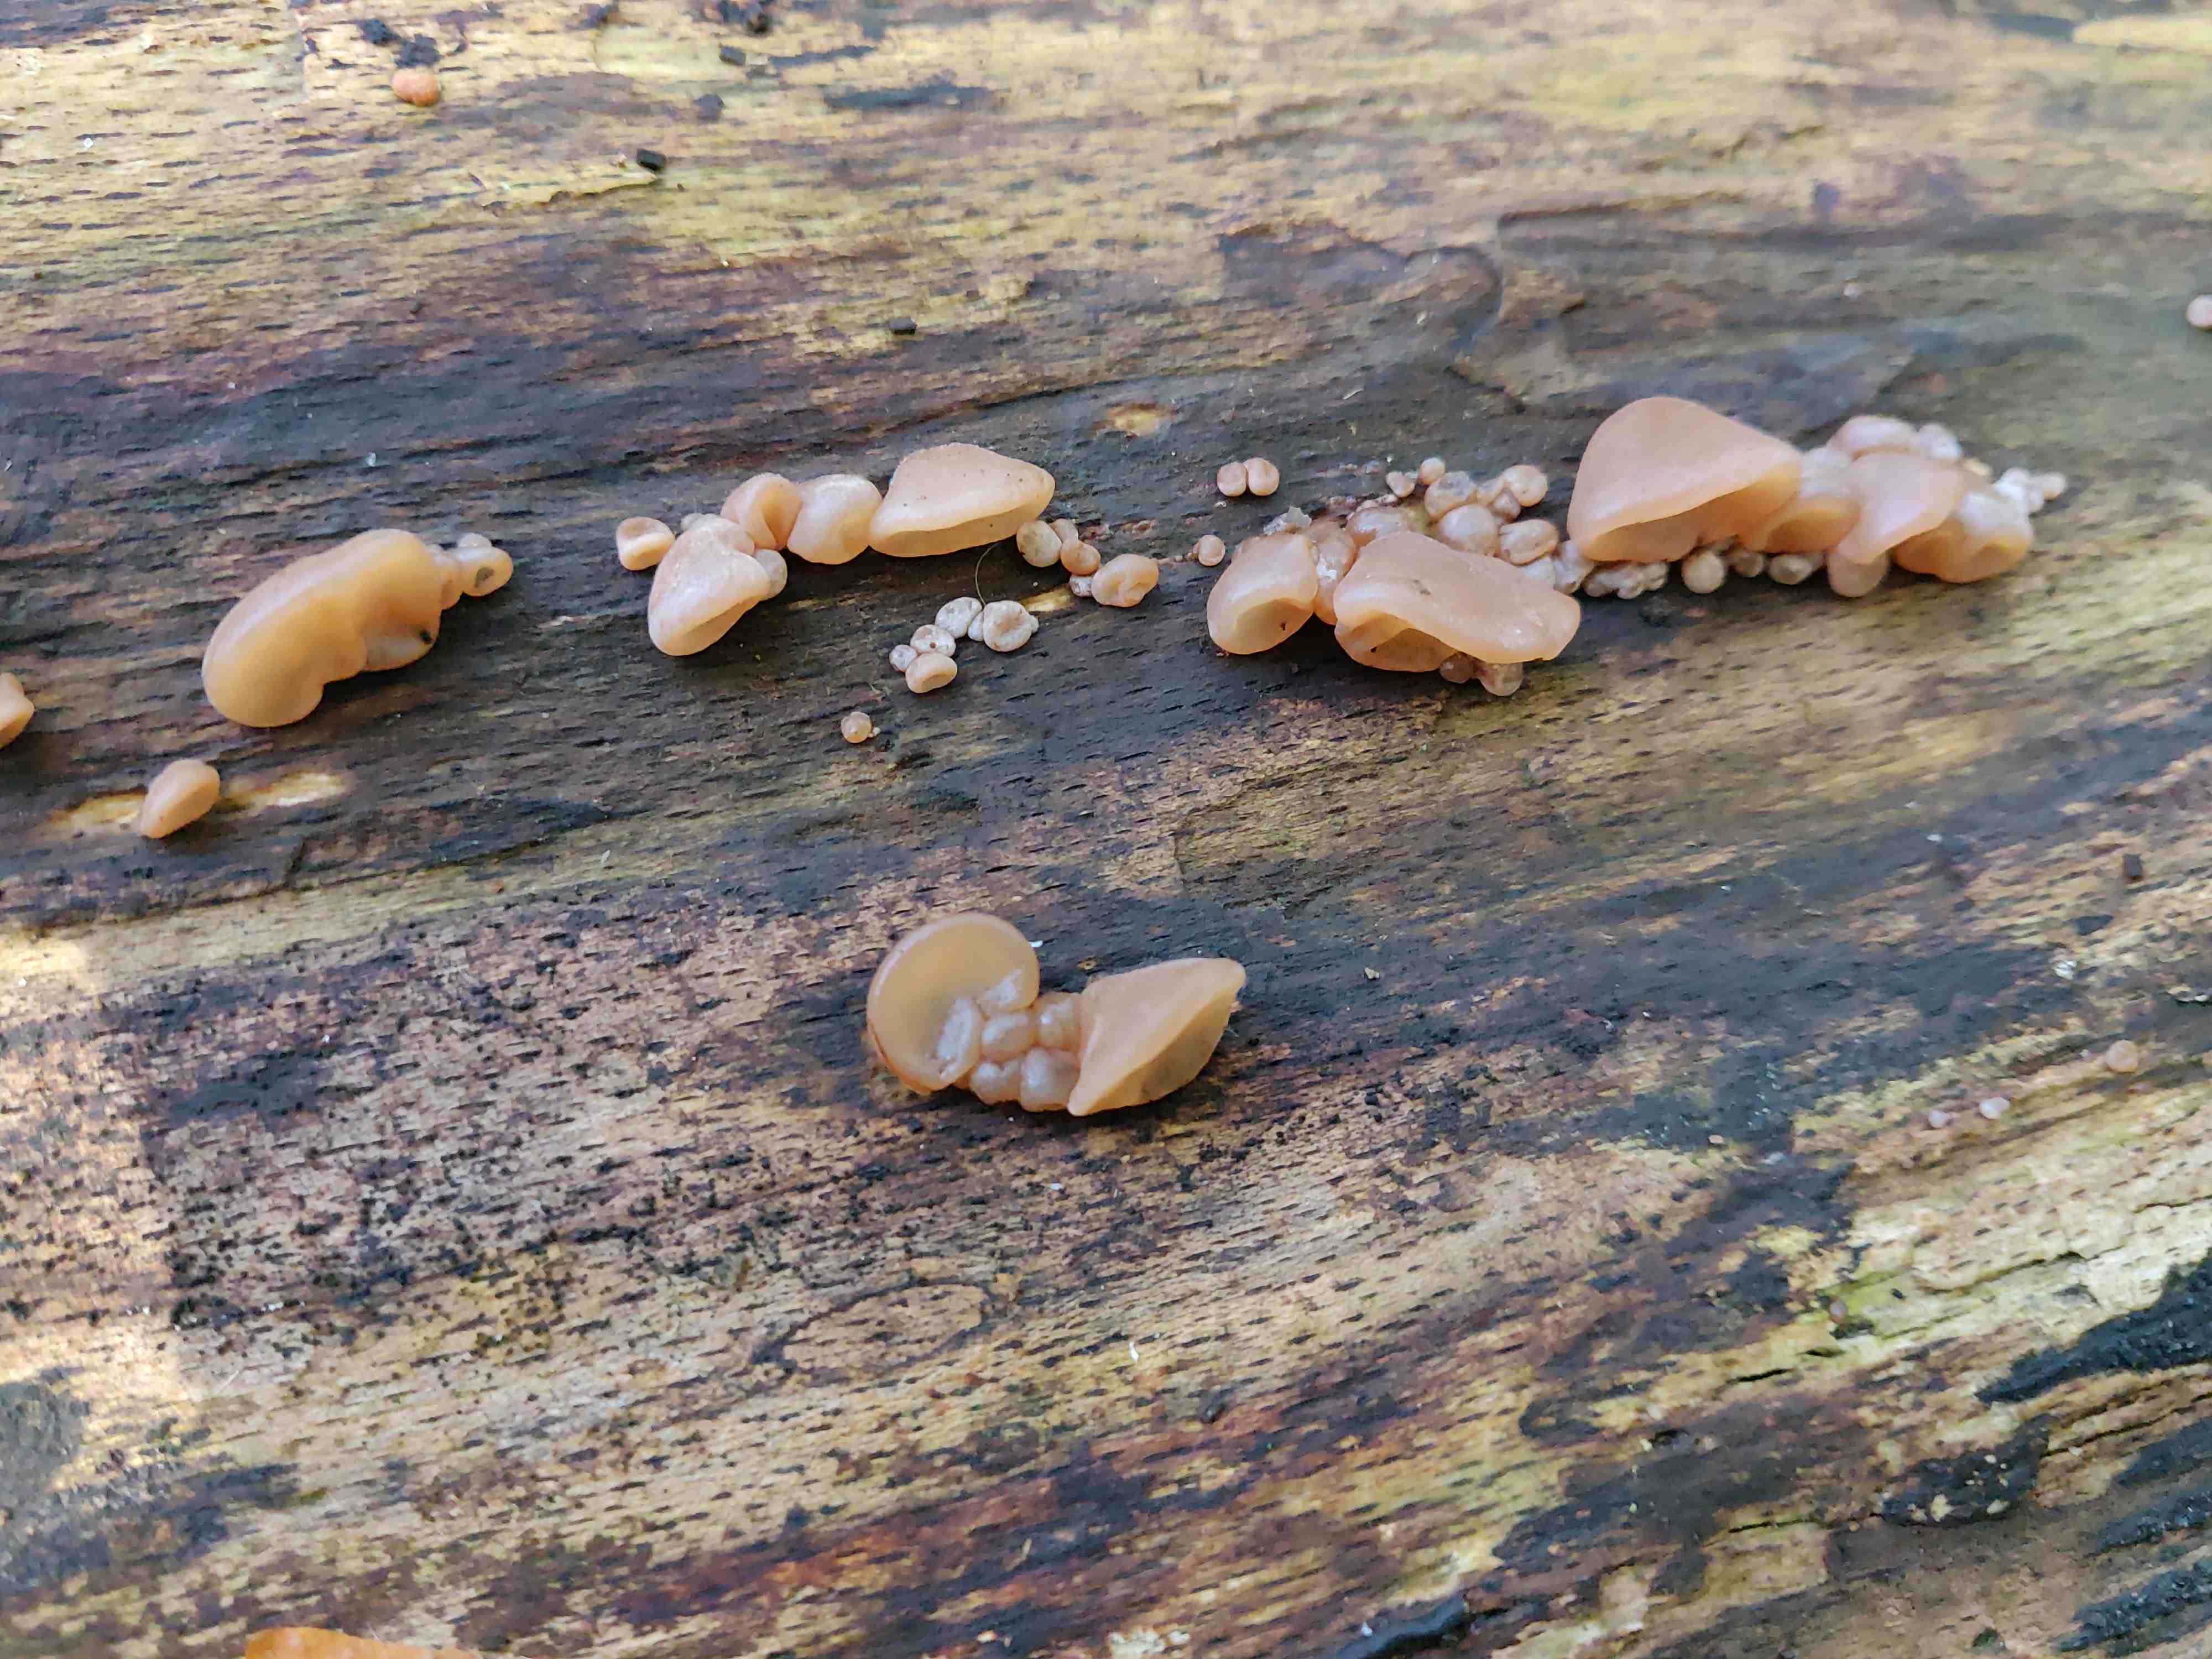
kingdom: Fungi
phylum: Basidiomycota
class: Agaricomycetes
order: Auriculariales
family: Auriculariaceae
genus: Auricularia
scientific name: Auricularia auricula-judae
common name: almindelig judasøre
